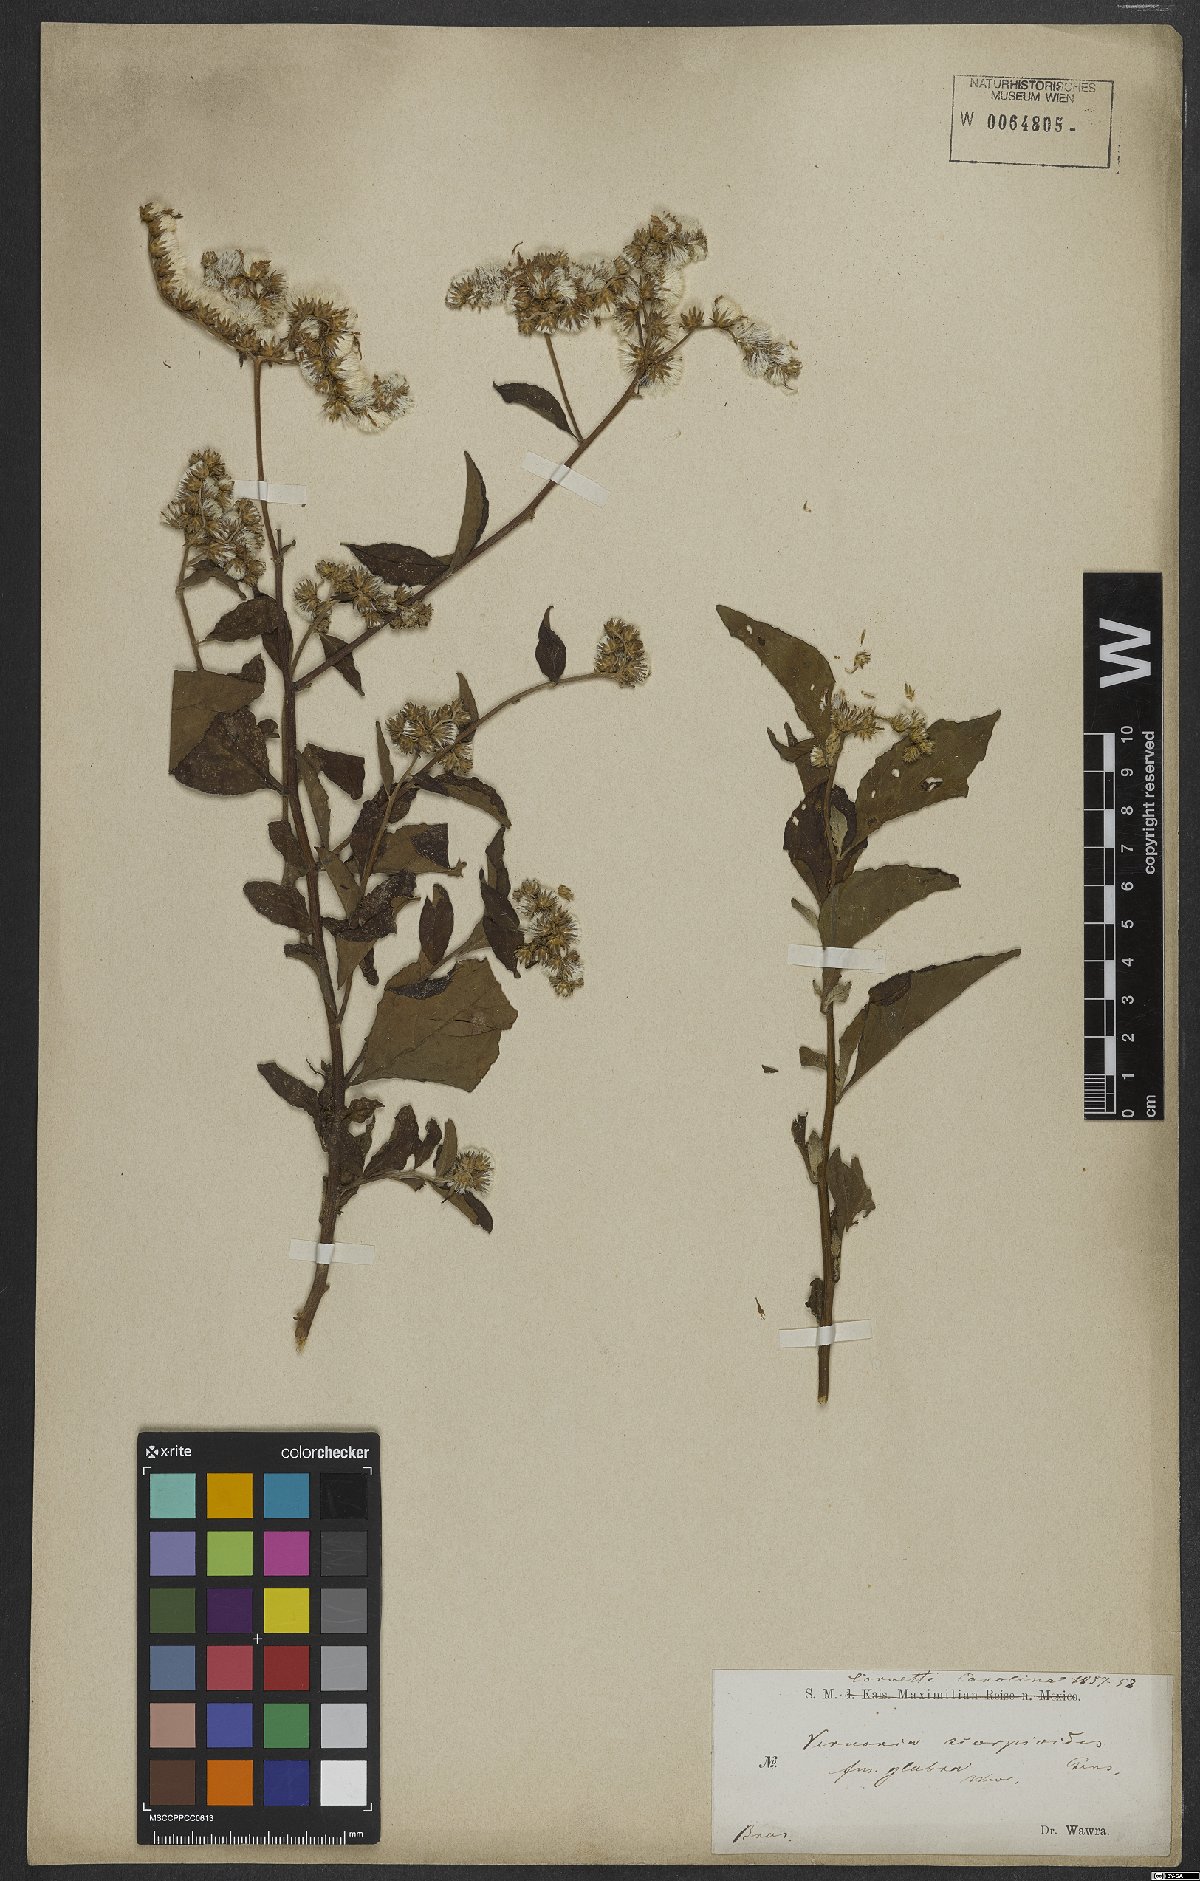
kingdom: Plantae
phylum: Tracheophyta
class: Magnoliopsida
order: Asterales
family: Asteraceae
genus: Cyrtocymura
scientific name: Cyrtocymura scorpioides
